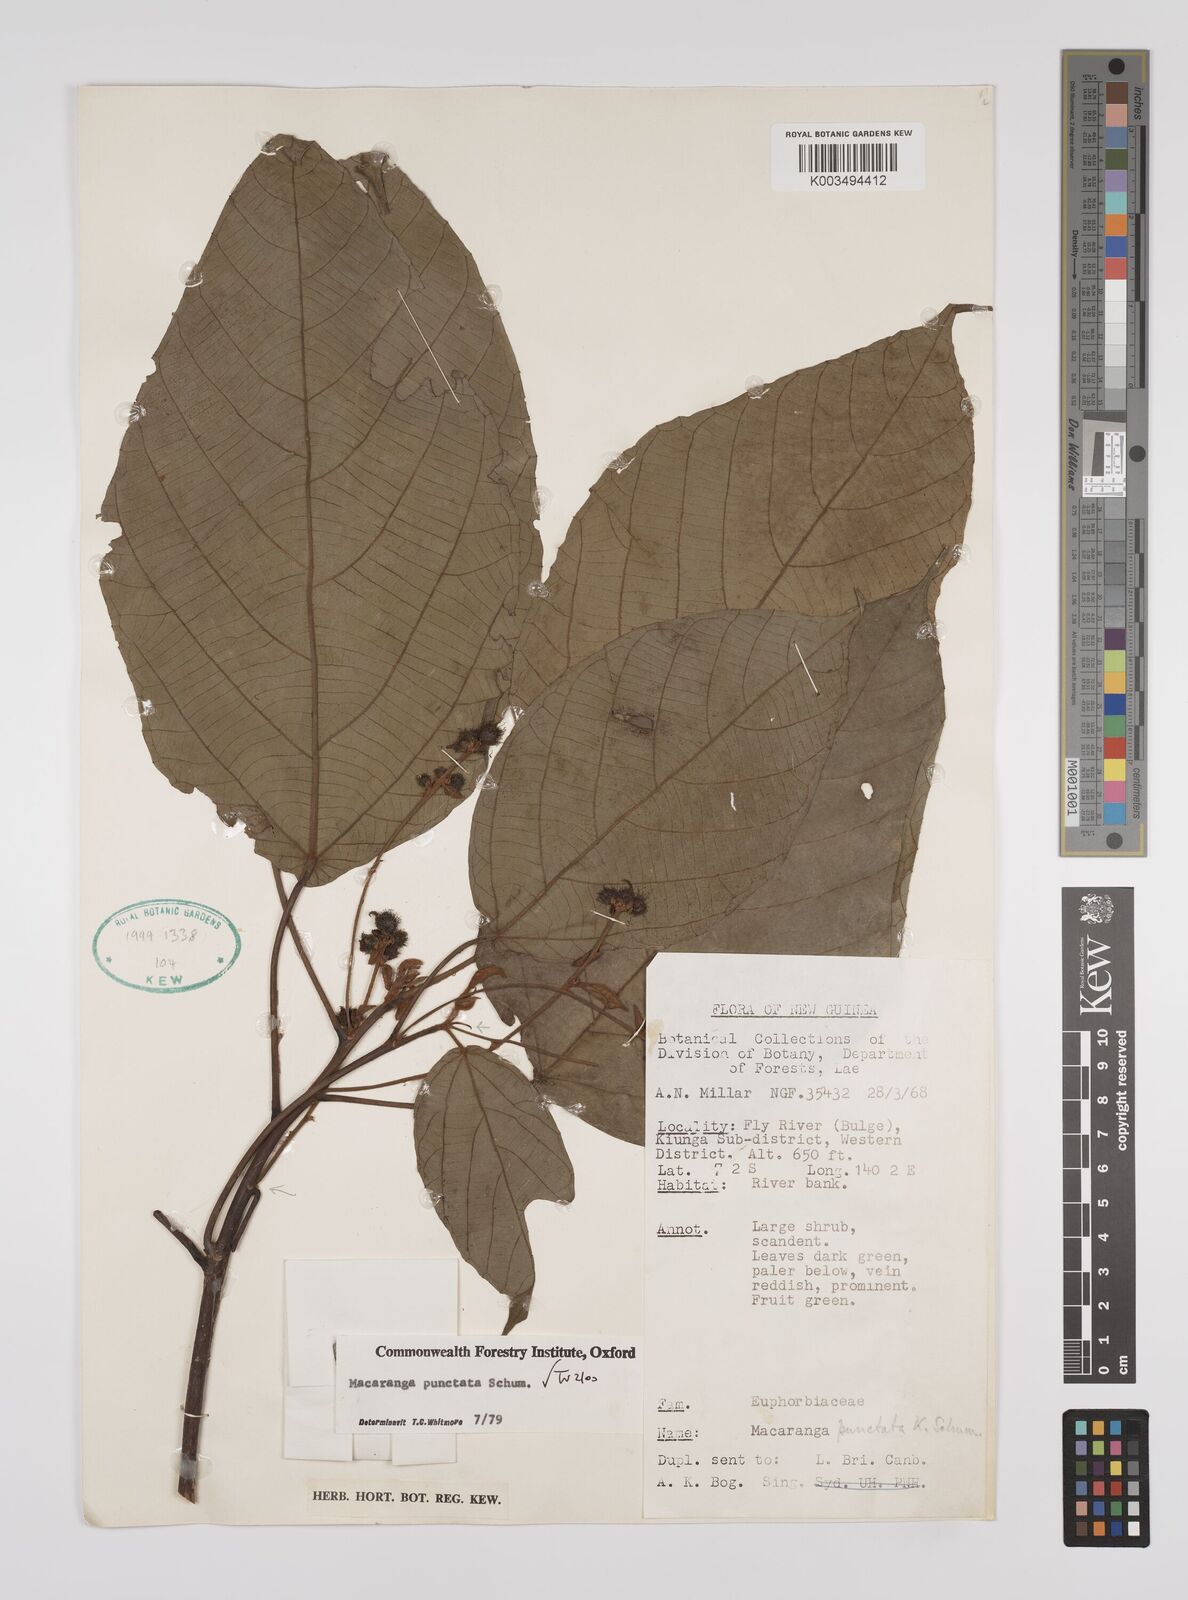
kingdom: Plantae
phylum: Tracheophyta
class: Magnoliopsida
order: Malpighiales
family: Euphorbiaceae
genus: Macaranga
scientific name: Macaranga punctata
